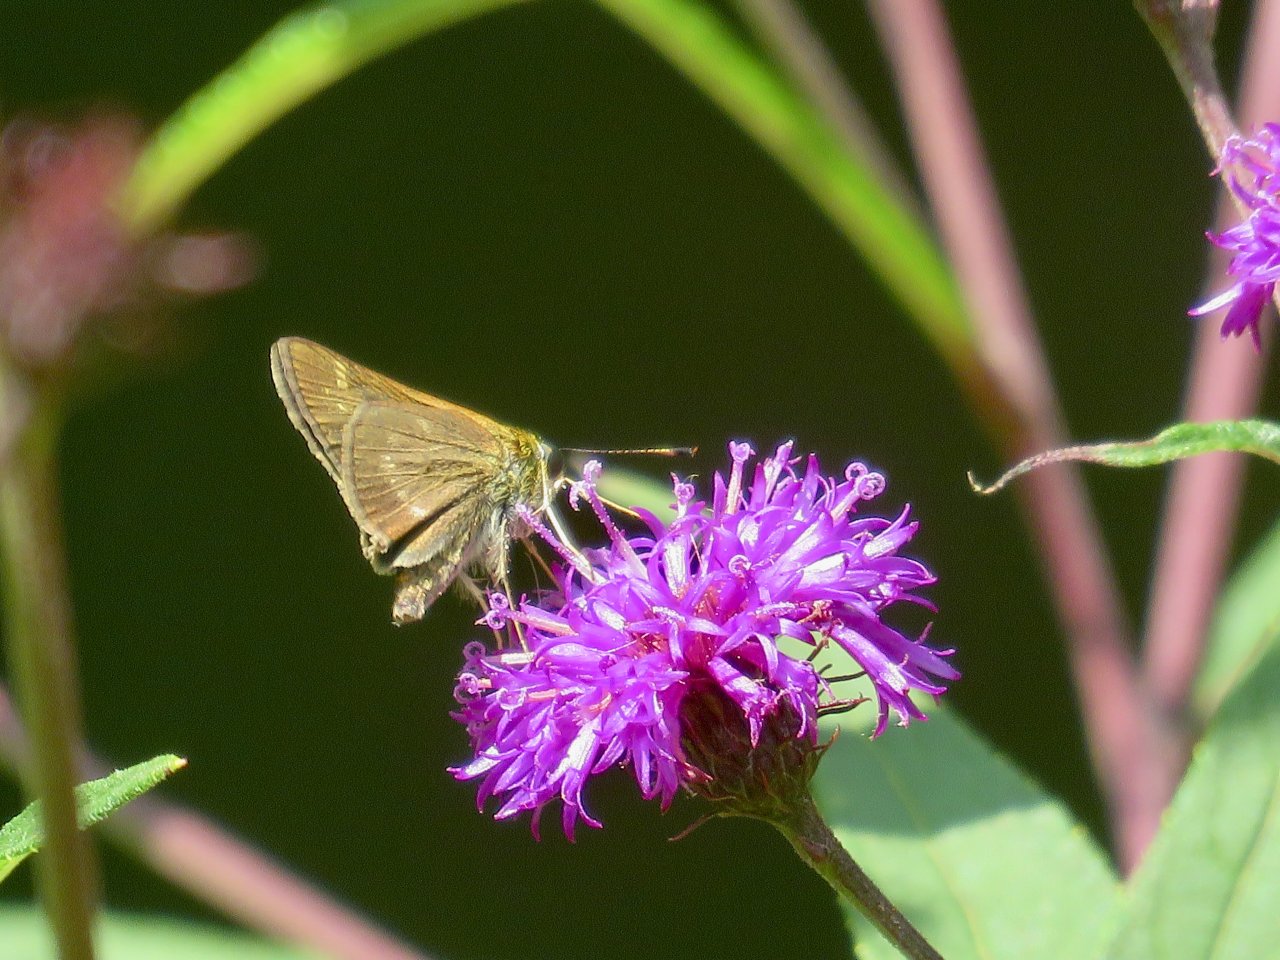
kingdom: Animalia
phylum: Arthropoda
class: Insecta
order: Lepidoptera
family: Hesperiidae
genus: Polites
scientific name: Polites
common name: Crossline Skipper
